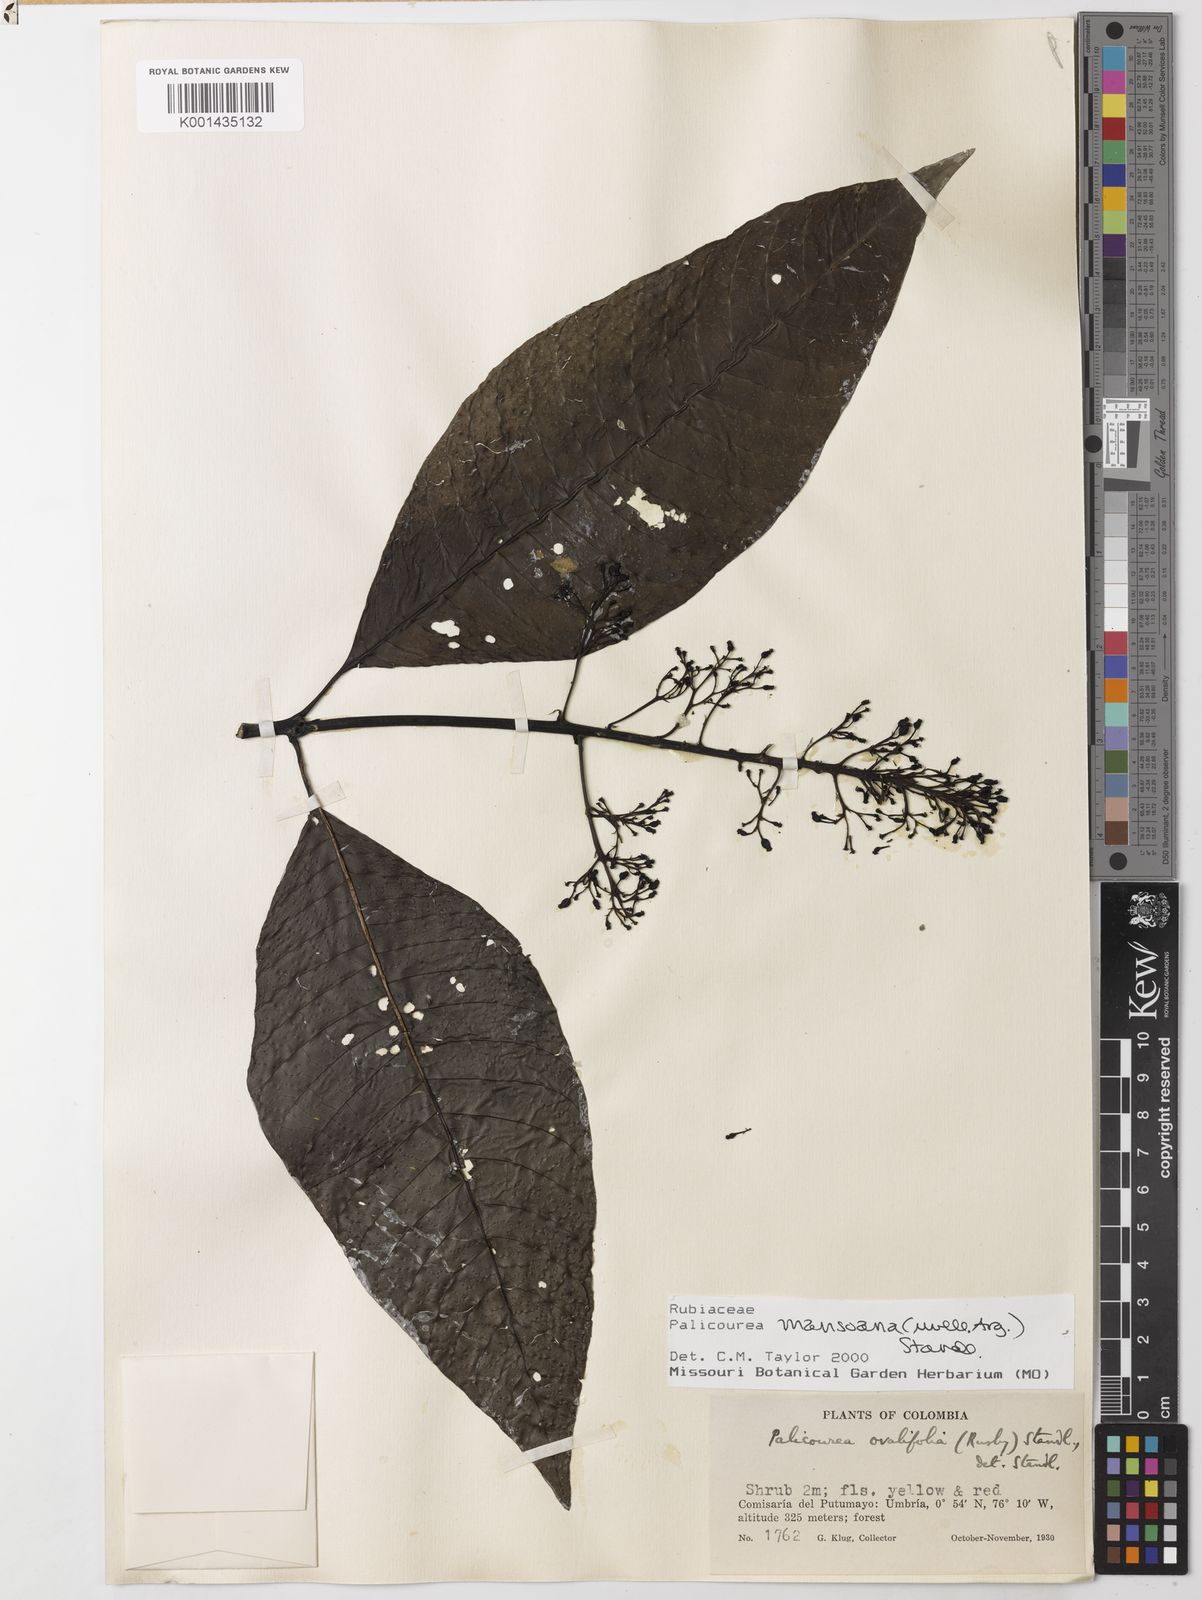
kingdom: Plantae
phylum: Tracheophyta
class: Magnoliopsida
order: Gentianales
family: Rubiaceae
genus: Palicourea
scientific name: Palicourea
